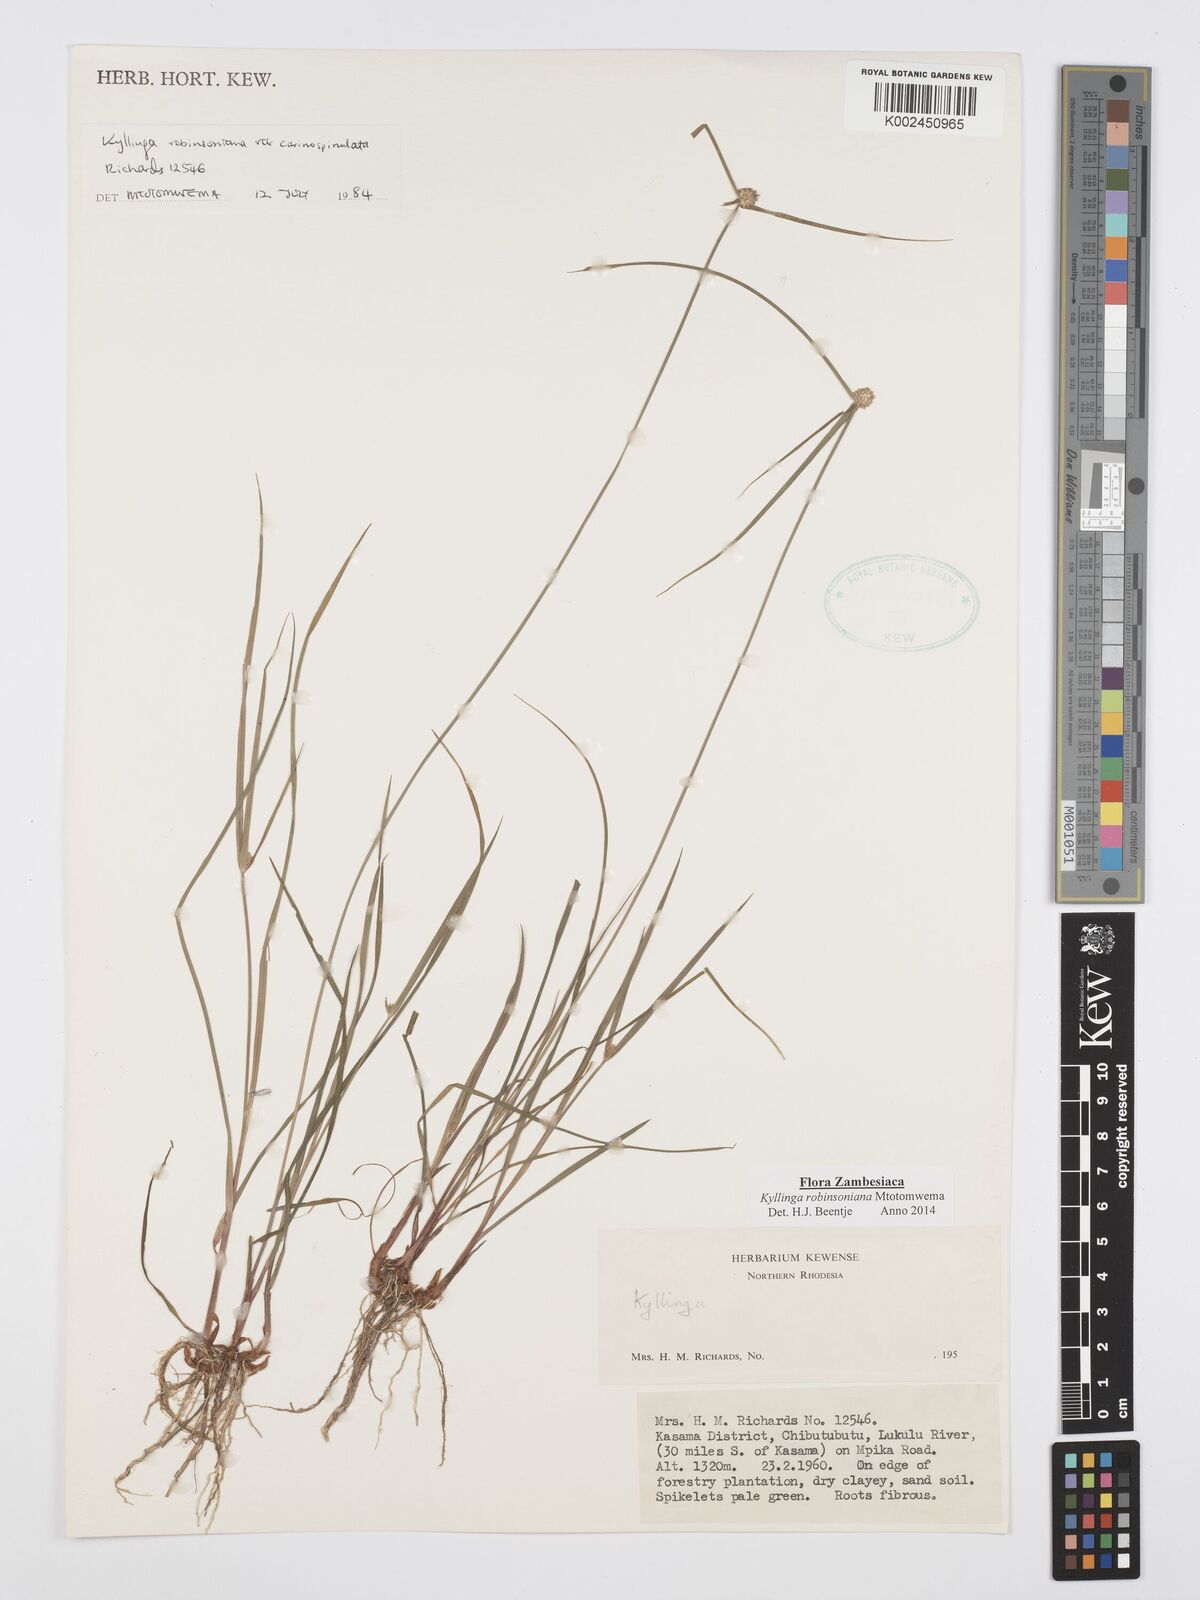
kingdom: Plantae
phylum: Tracheophyta
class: Liliopsida
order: Poales
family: Cyperaceae
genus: Cyperus
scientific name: Cyperus robinsonianus
